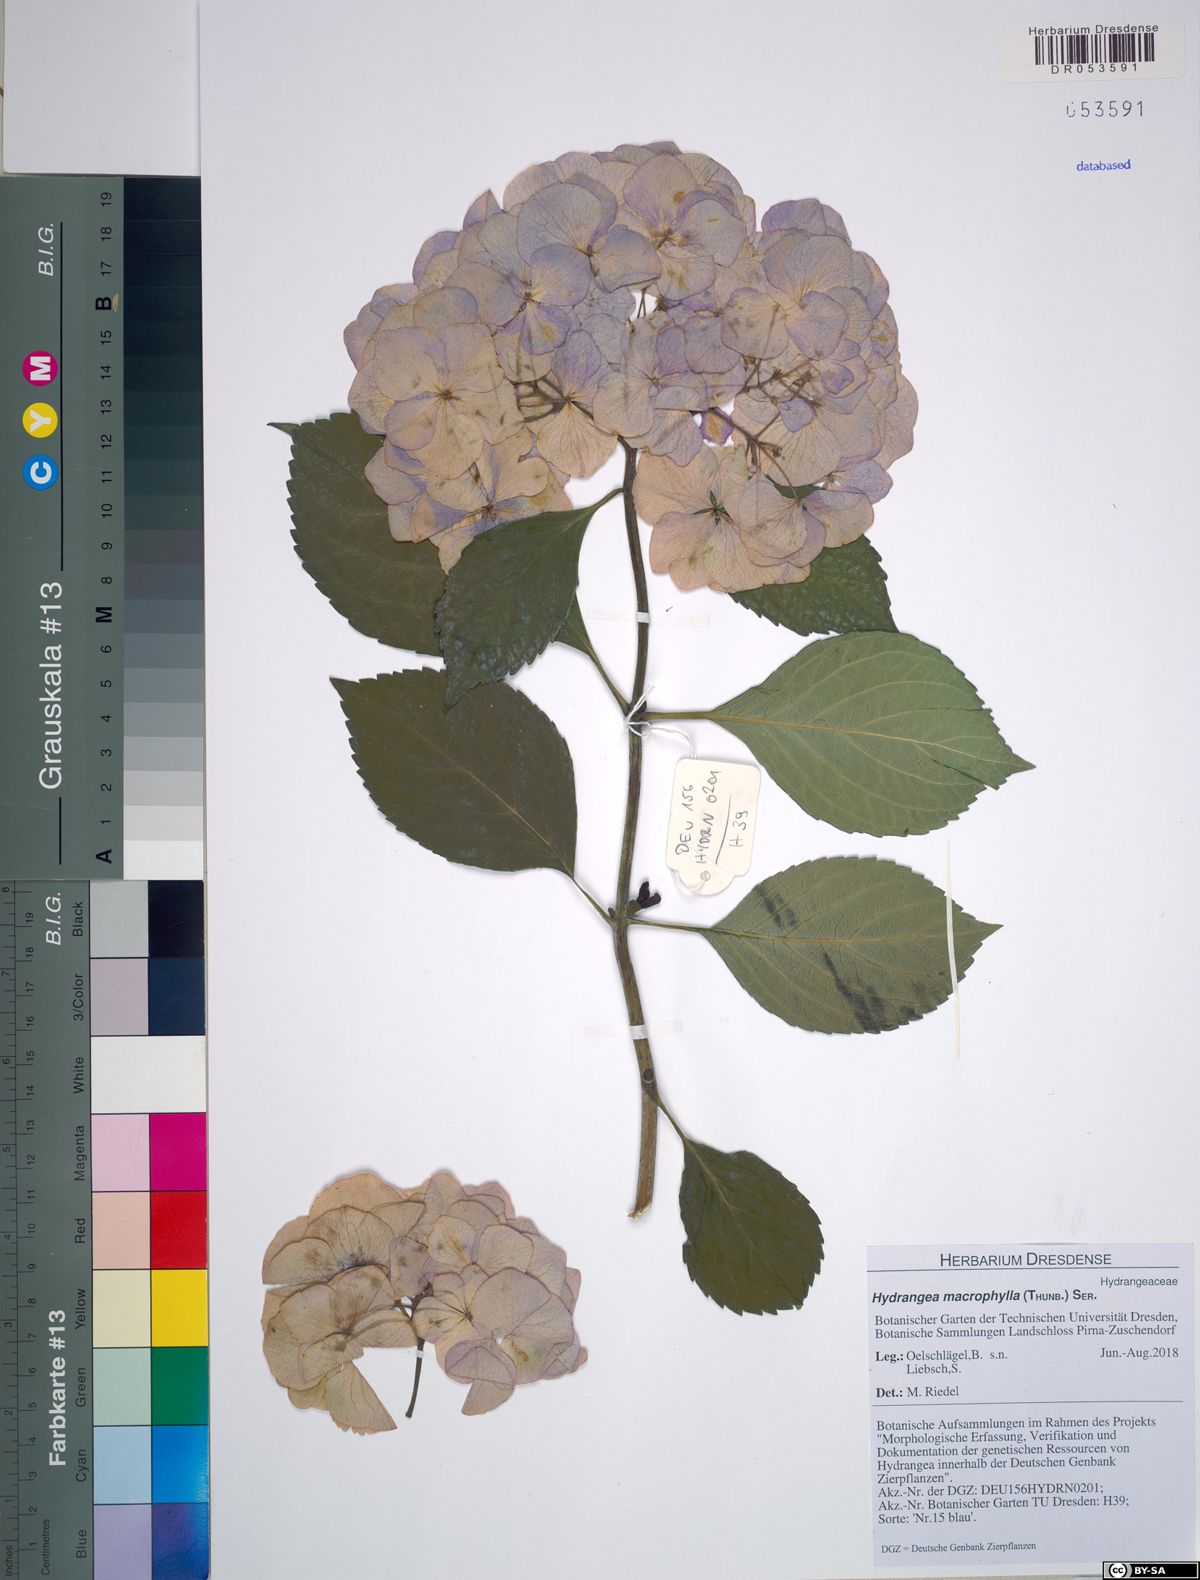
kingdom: Plantae
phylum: Tracheophyta
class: Magnoliopsida
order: Cornales
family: Hydrangeaceae
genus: Hydrangea
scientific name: Hydrangea macrophylla
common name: Hydrangea
